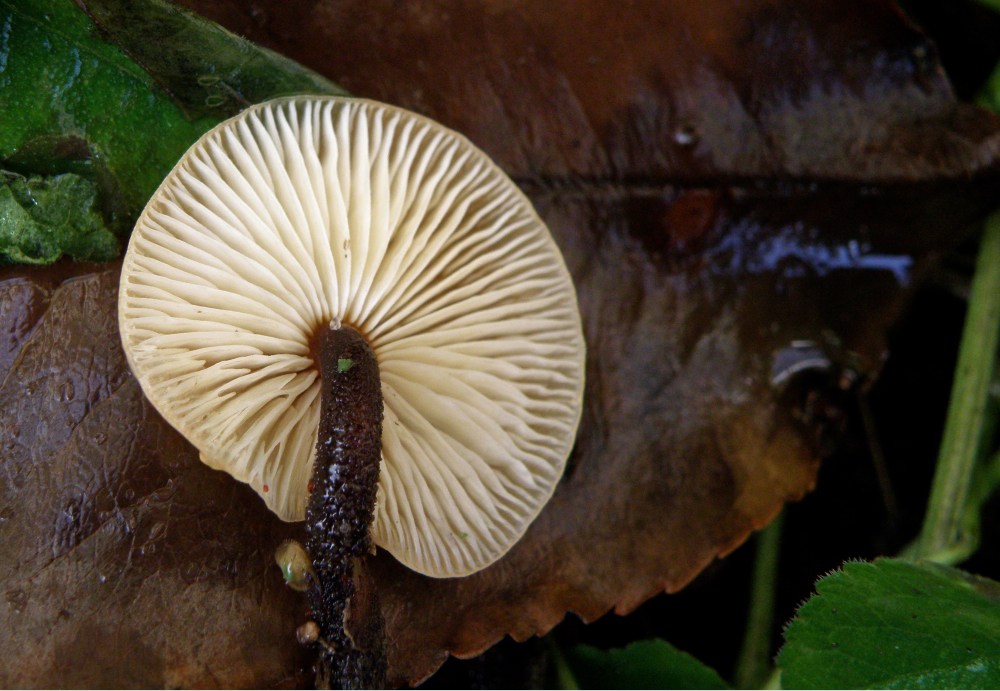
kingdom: Fungi
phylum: Basidiomycota
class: Agaricomycetes
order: Agaricales
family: Physalacriaceae
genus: Flammulina
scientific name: Flammulina velutipes
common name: gul fløjlsfod
